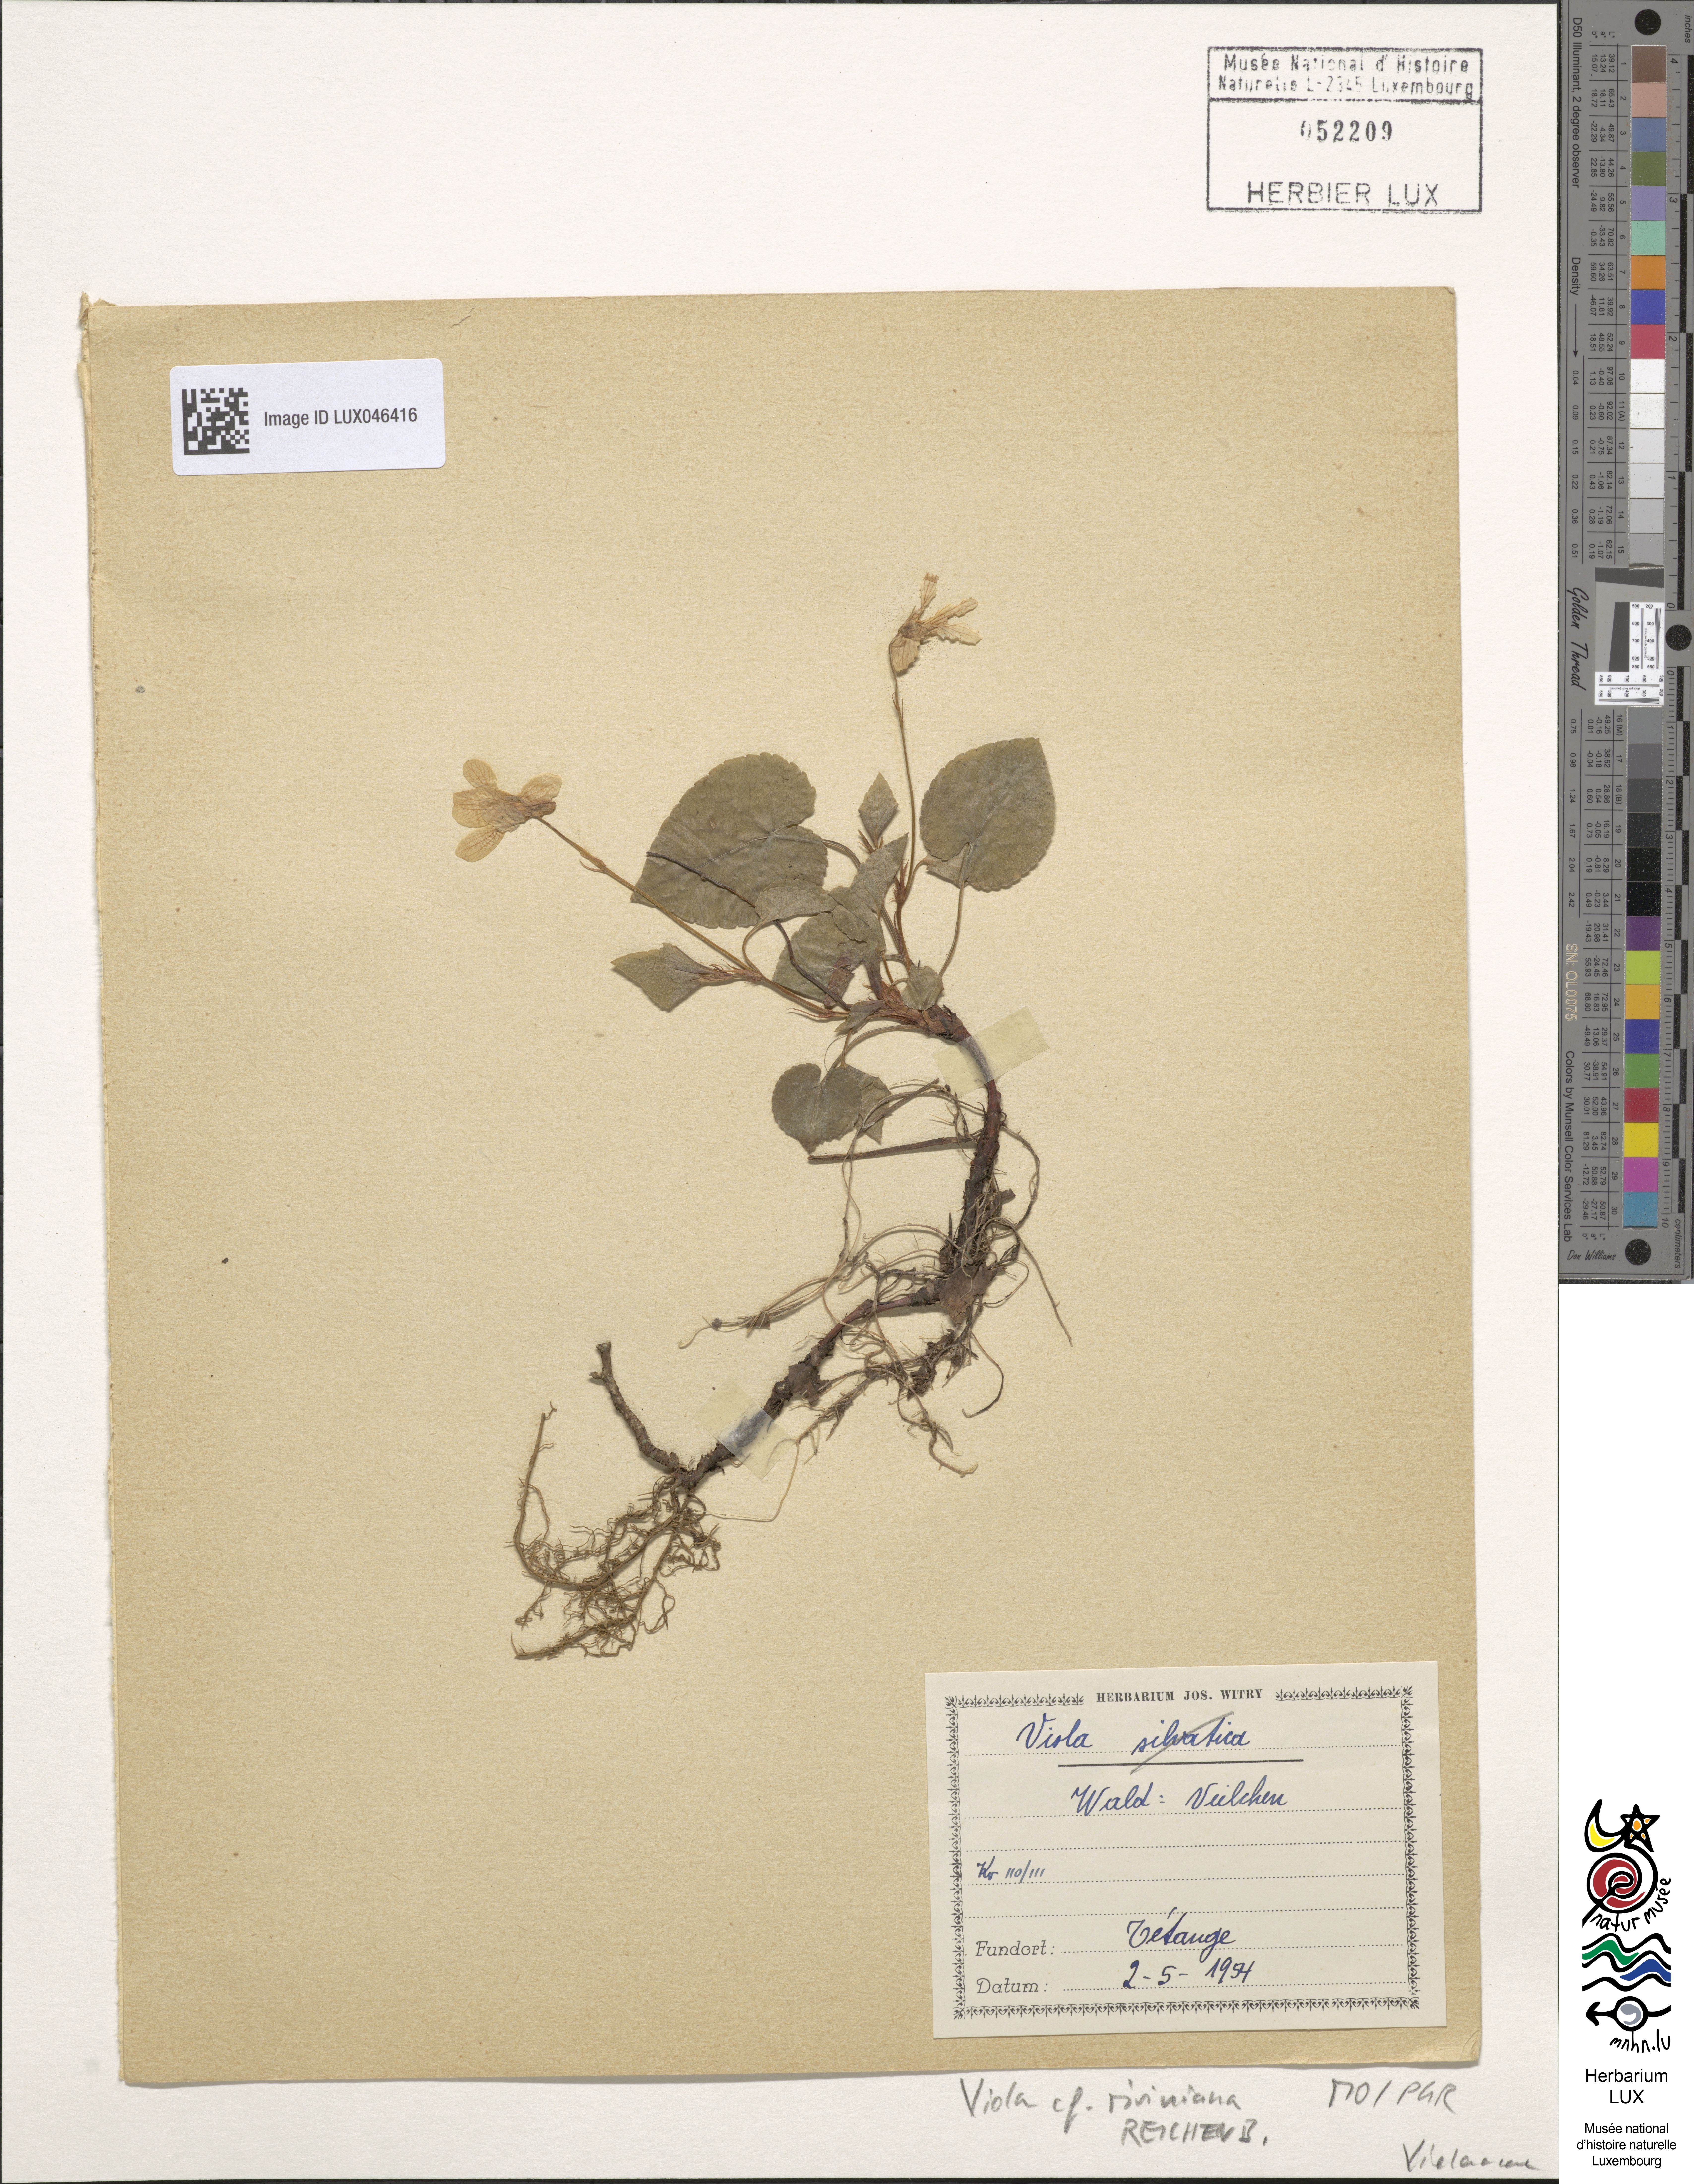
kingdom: Plantae
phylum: Tracheophyta
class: Magnoliopsida
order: Malpighiales
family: Violaceae
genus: Viola
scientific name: Viola riviniana
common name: Common dog-violet
